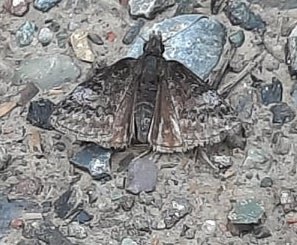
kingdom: Animalia
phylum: Arthropoda
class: Insecta
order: Lepidoptera
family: Hesperiidae
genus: Erynnis
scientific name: Erynnis icelus
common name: Dreamy Duskywing
